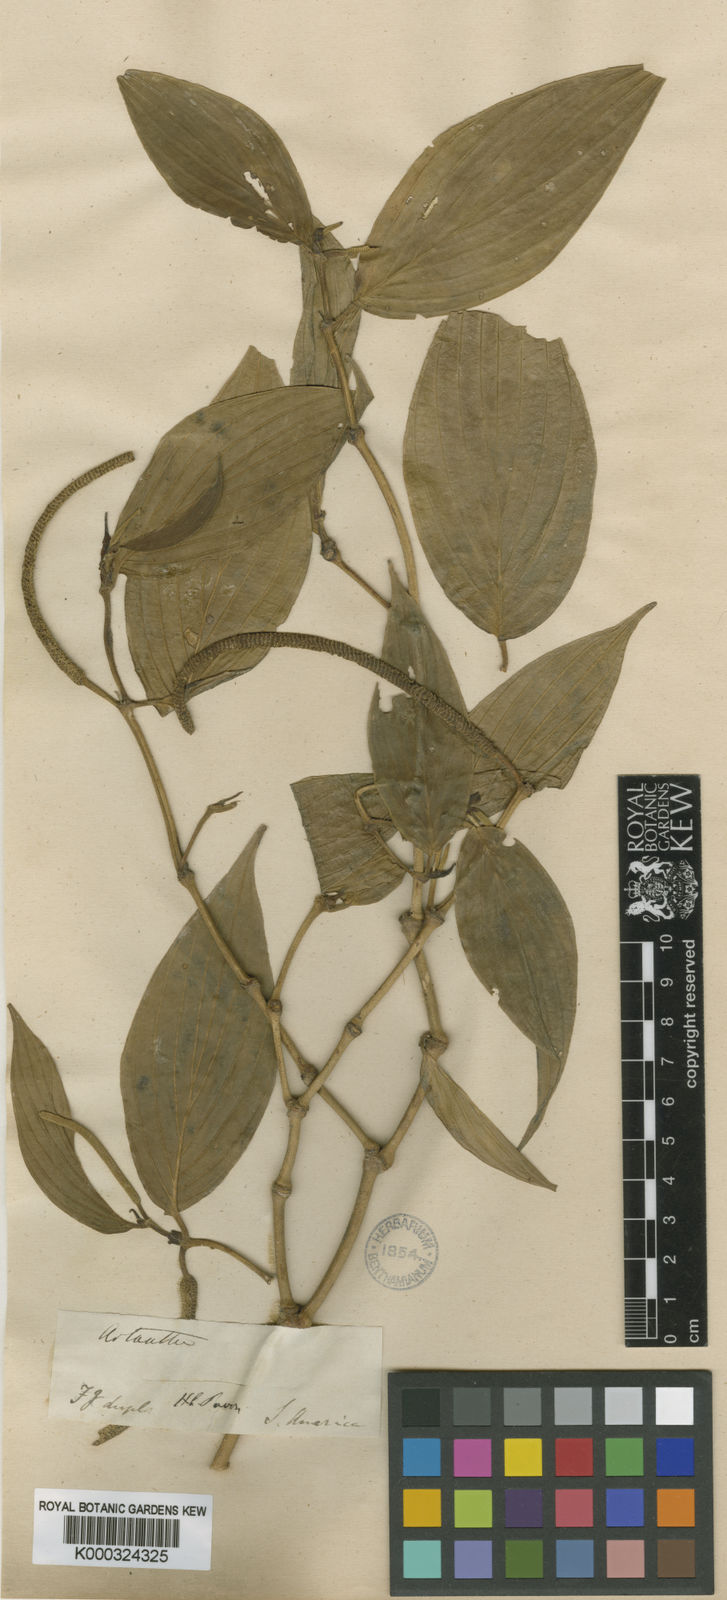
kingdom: Plantae
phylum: Tracheophyta
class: Magnoliopsida
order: Piperales
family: Piperaceae
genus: Piper
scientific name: Piper lineatum
